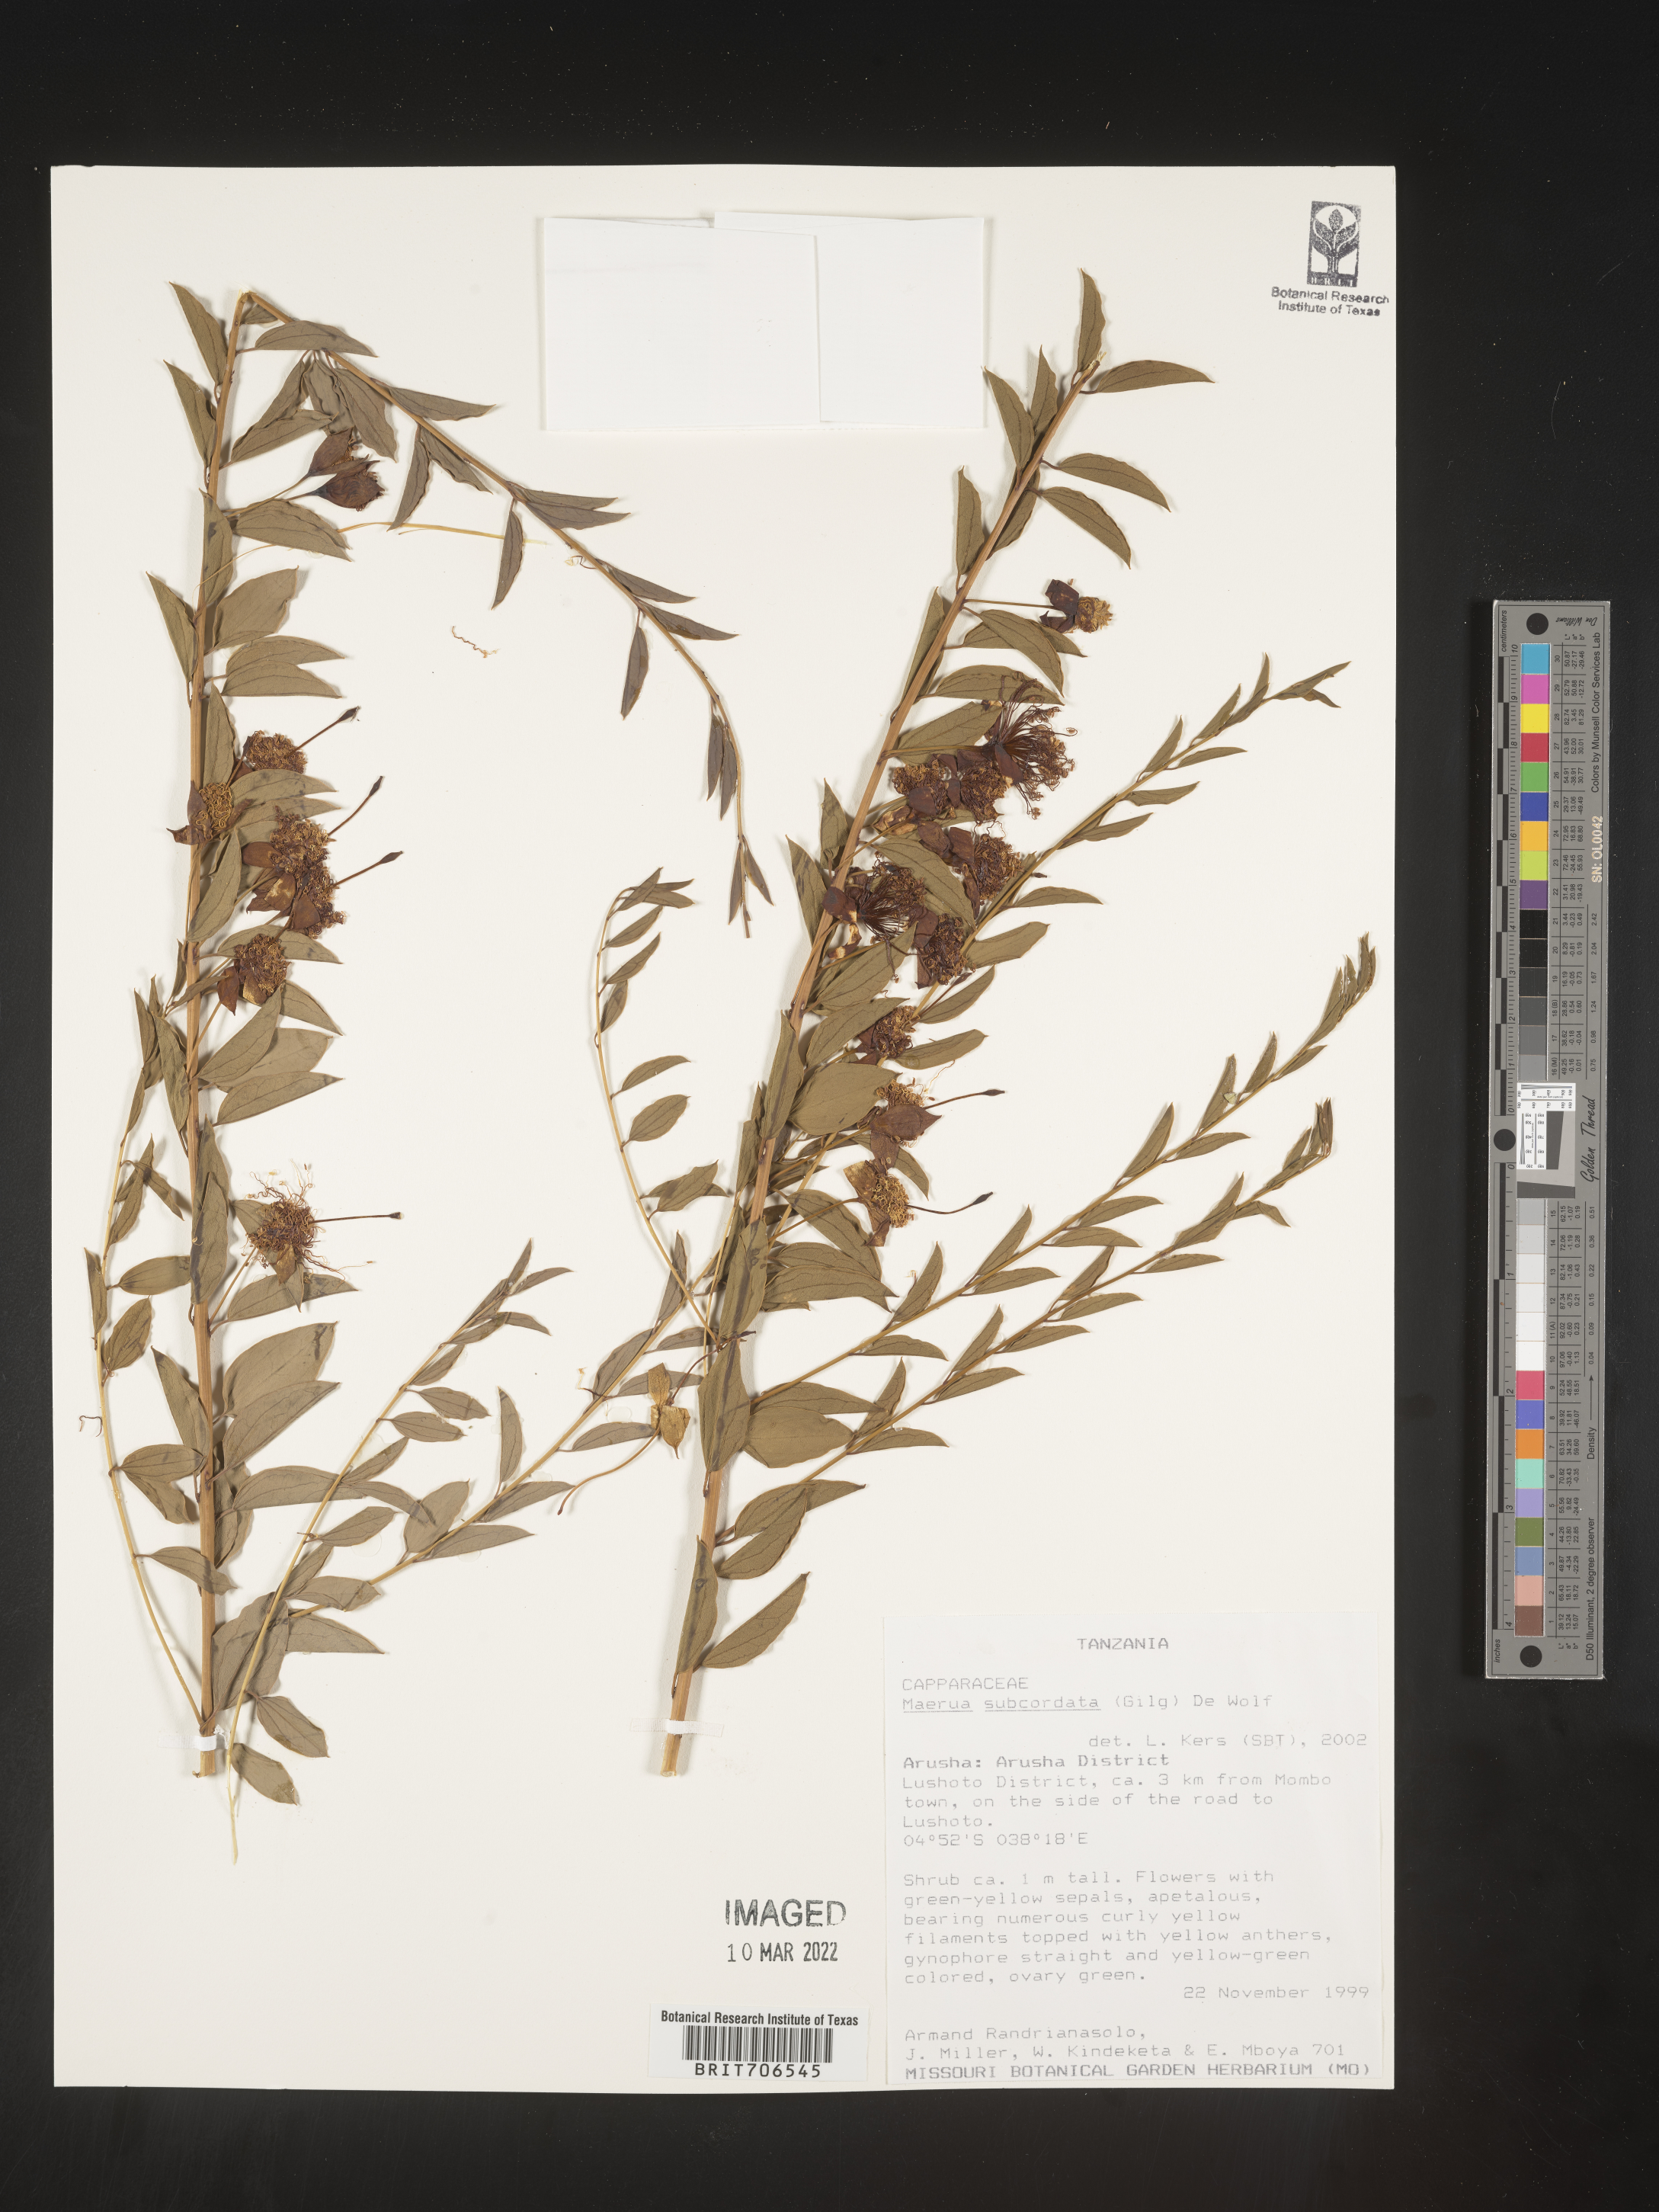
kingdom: Plantae
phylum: Tracheophyta
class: Magnoliopsida
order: Brassicales
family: Capparaceae
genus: Maerua
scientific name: Maerua
